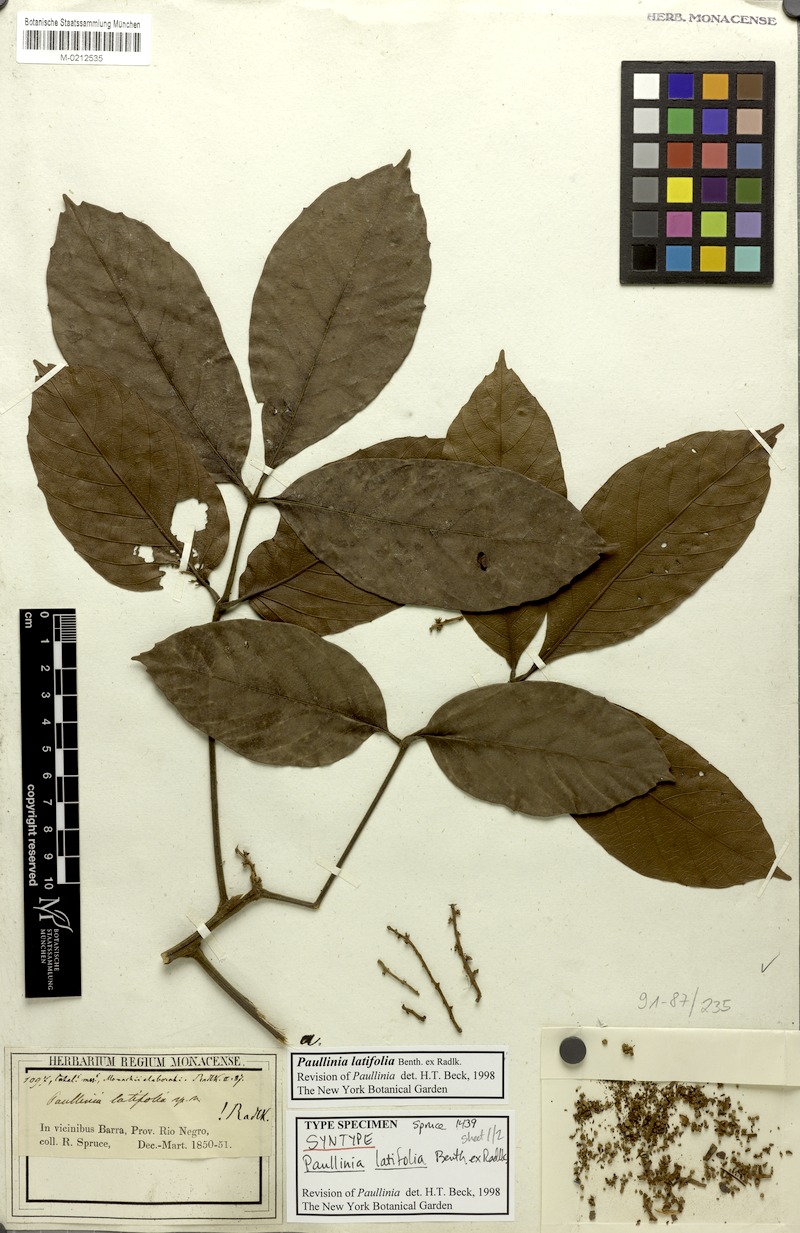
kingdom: Plantae
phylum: Tracheophyta
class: Magnoliopsida
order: Sapindales
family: Sapindaceae
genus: Paullinia
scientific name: Paullinia latifolia
